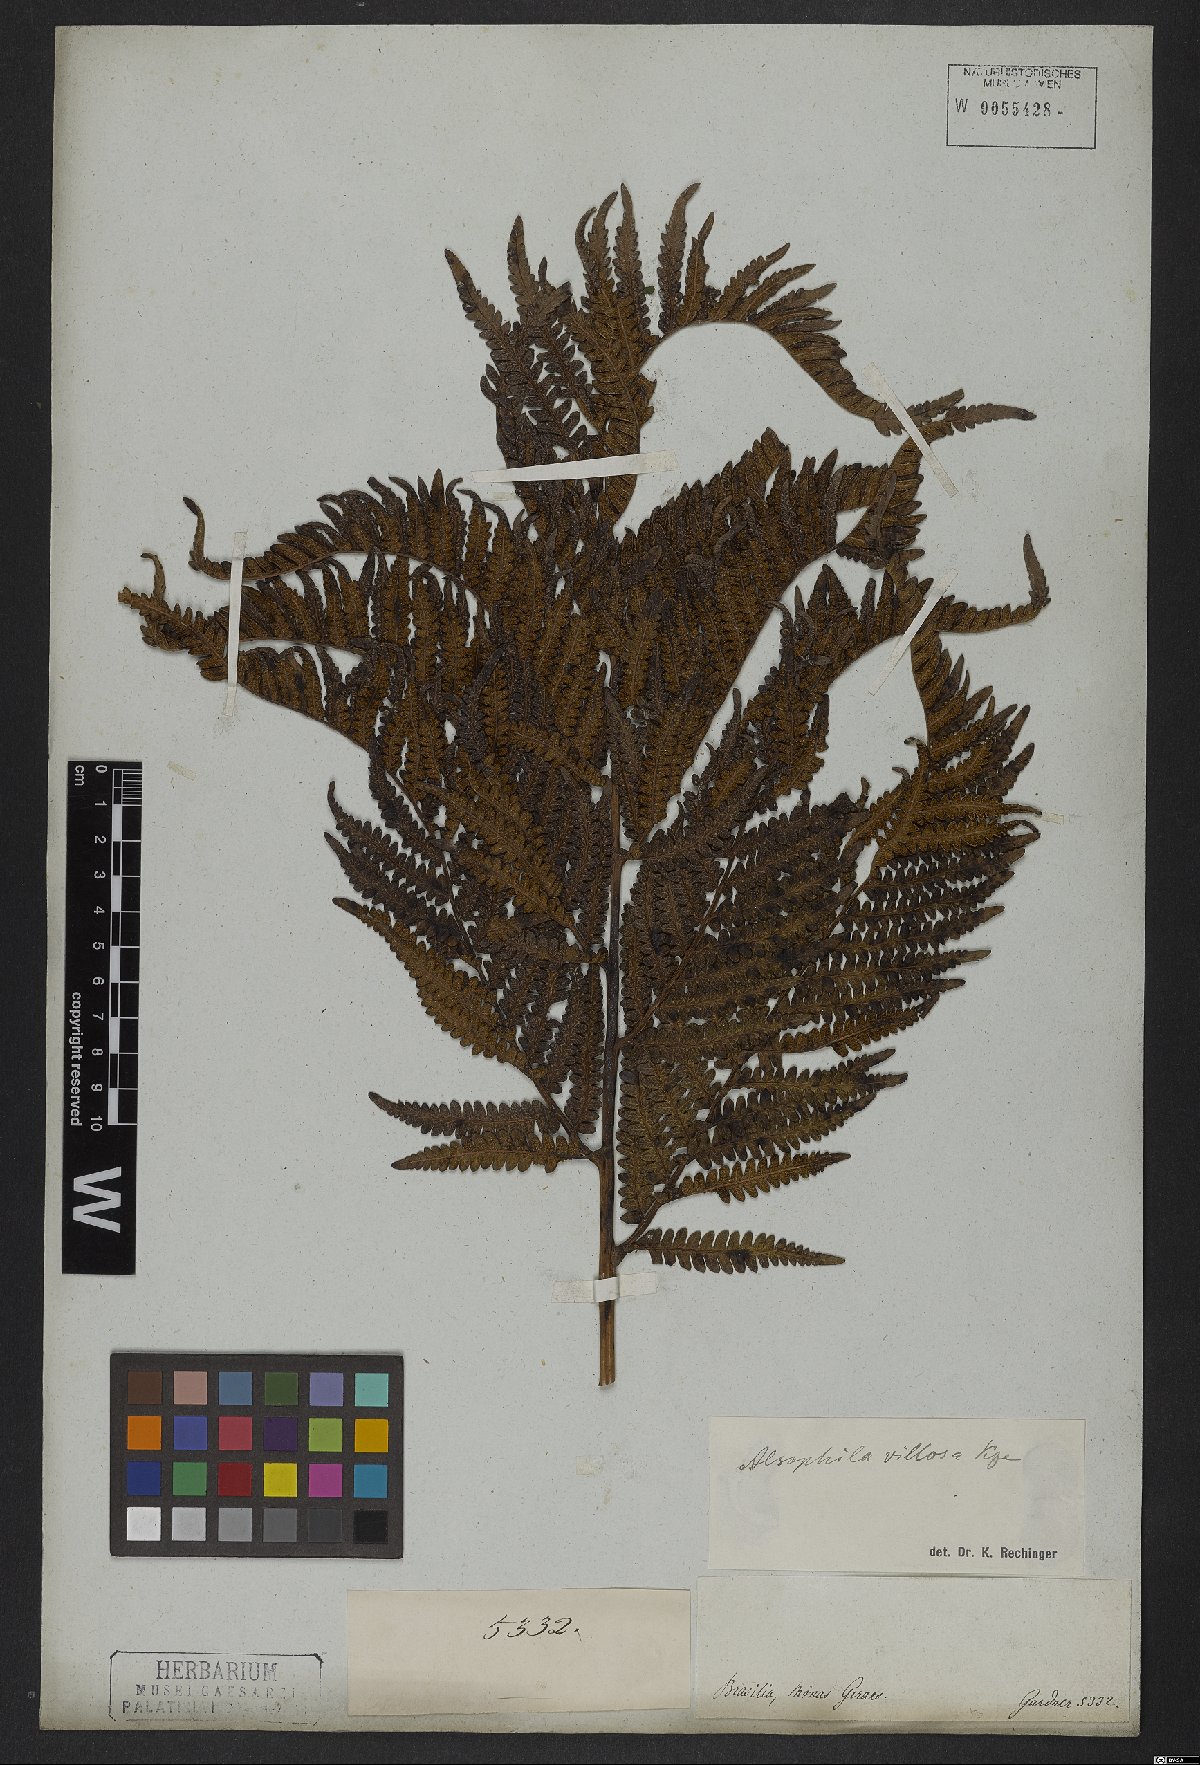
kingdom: Plantae
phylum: Tracheophyta
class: Polypodiopsida
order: Cyatheales
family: Cyatheaceae
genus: Cyathea
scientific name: Cyathea villosa
